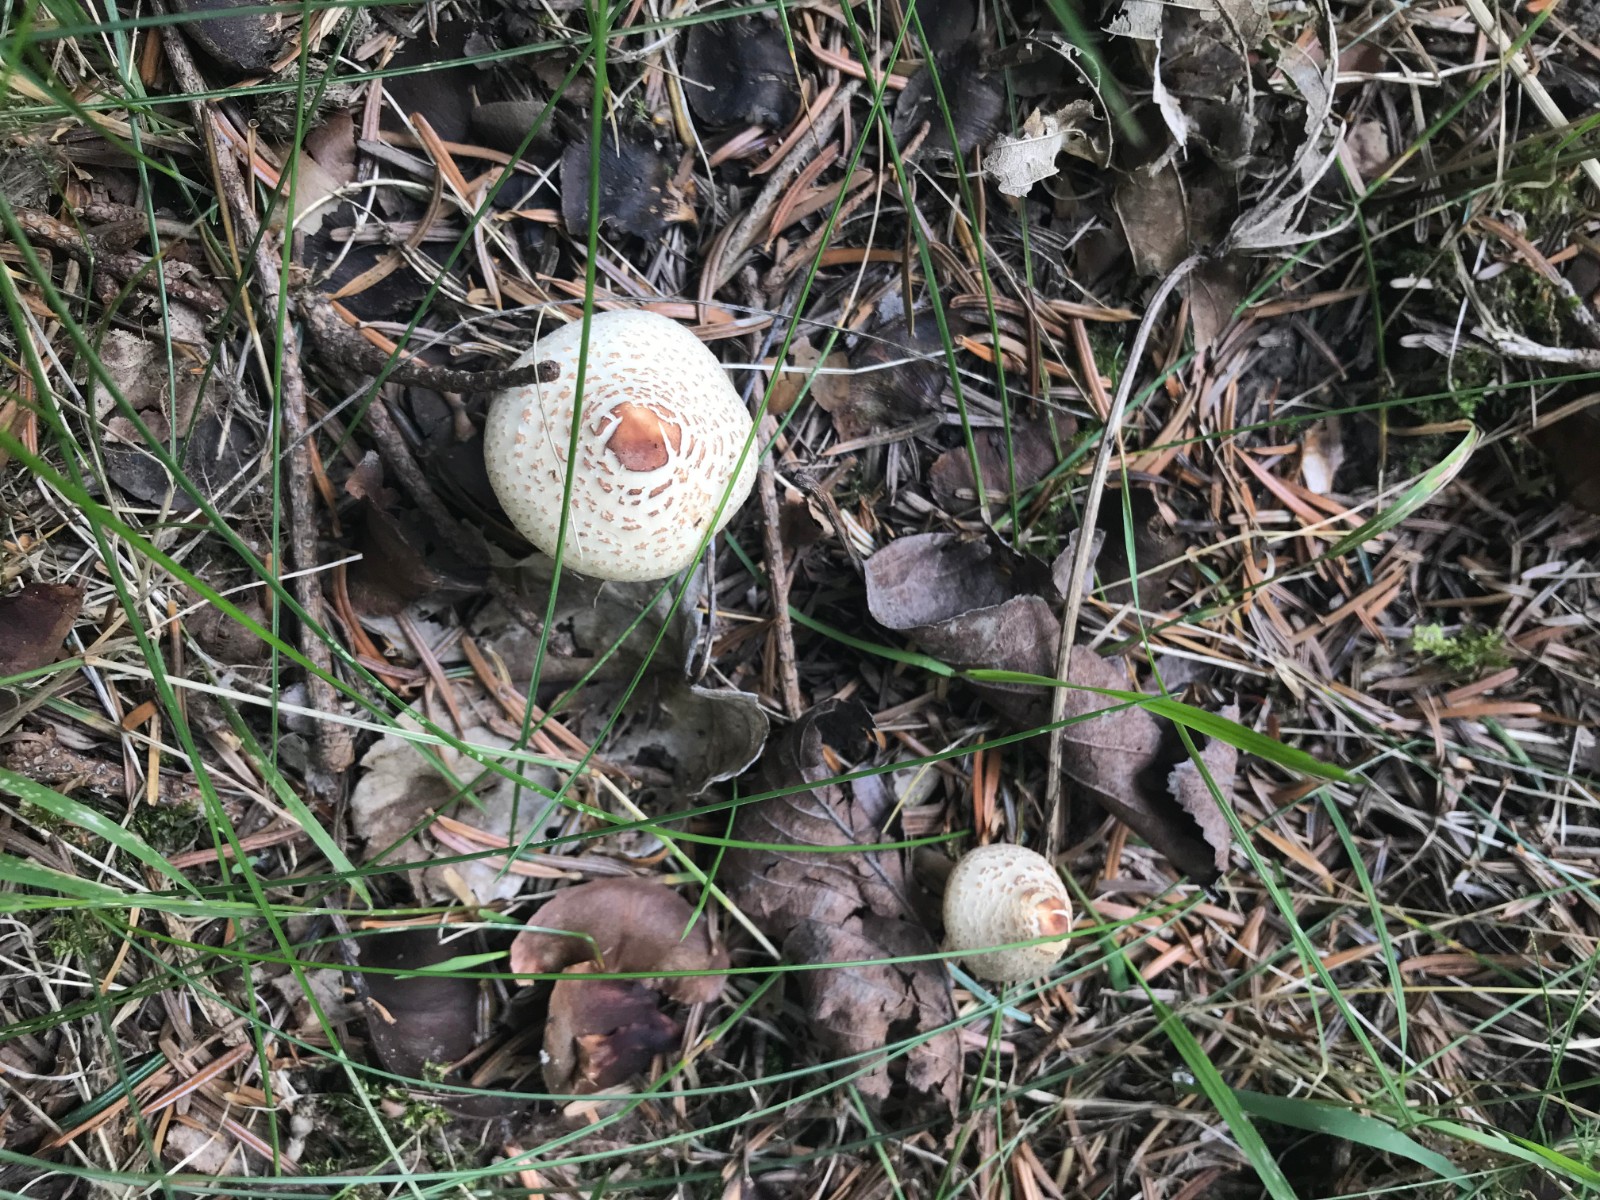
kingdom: Fungi
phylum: Basidiomycota
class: Agaricomycetes
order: Agaricales
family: Agaricaceae
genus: Lepiota
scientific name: Lepiota cristata
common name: stinkende parasolhat
